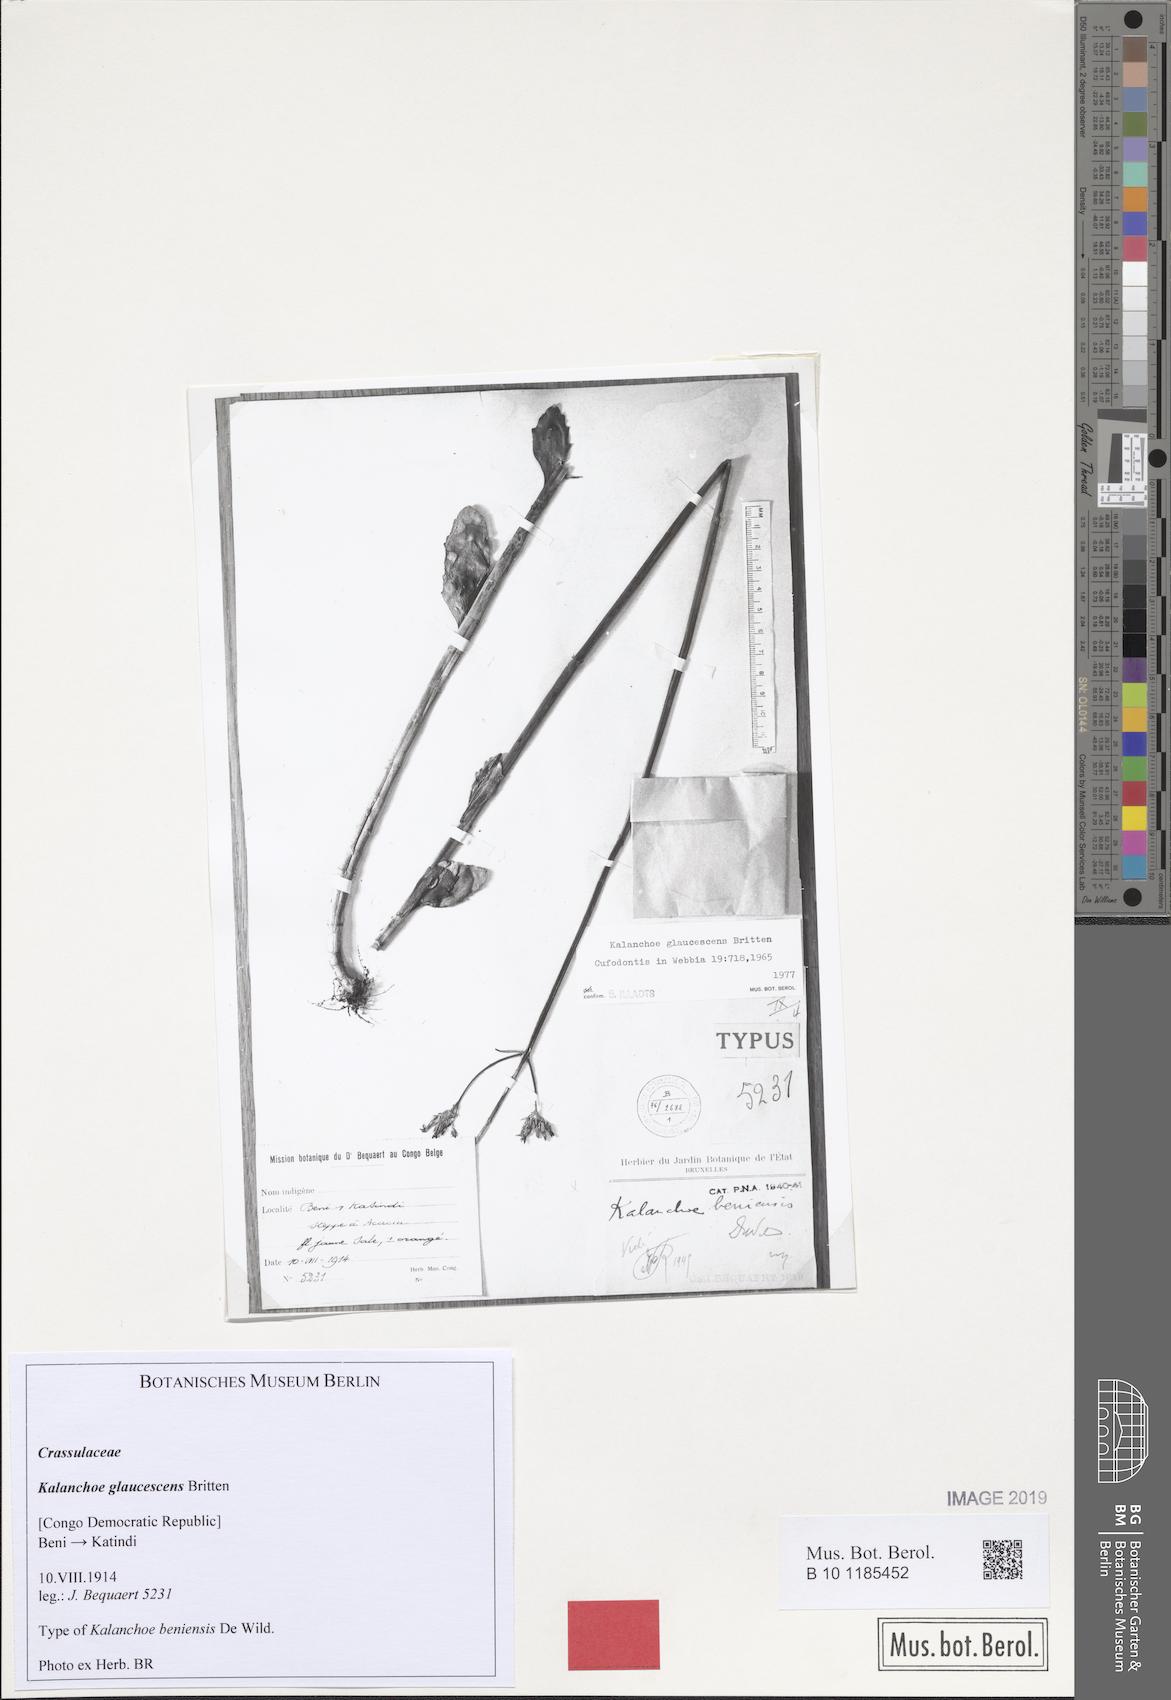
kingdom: Plantae
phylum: Tracheophyta
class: Magnoliopsida
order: Saxifragales
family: Crassulaceae
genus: Kalanchoe
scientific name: Kalanchoe glaucescens
